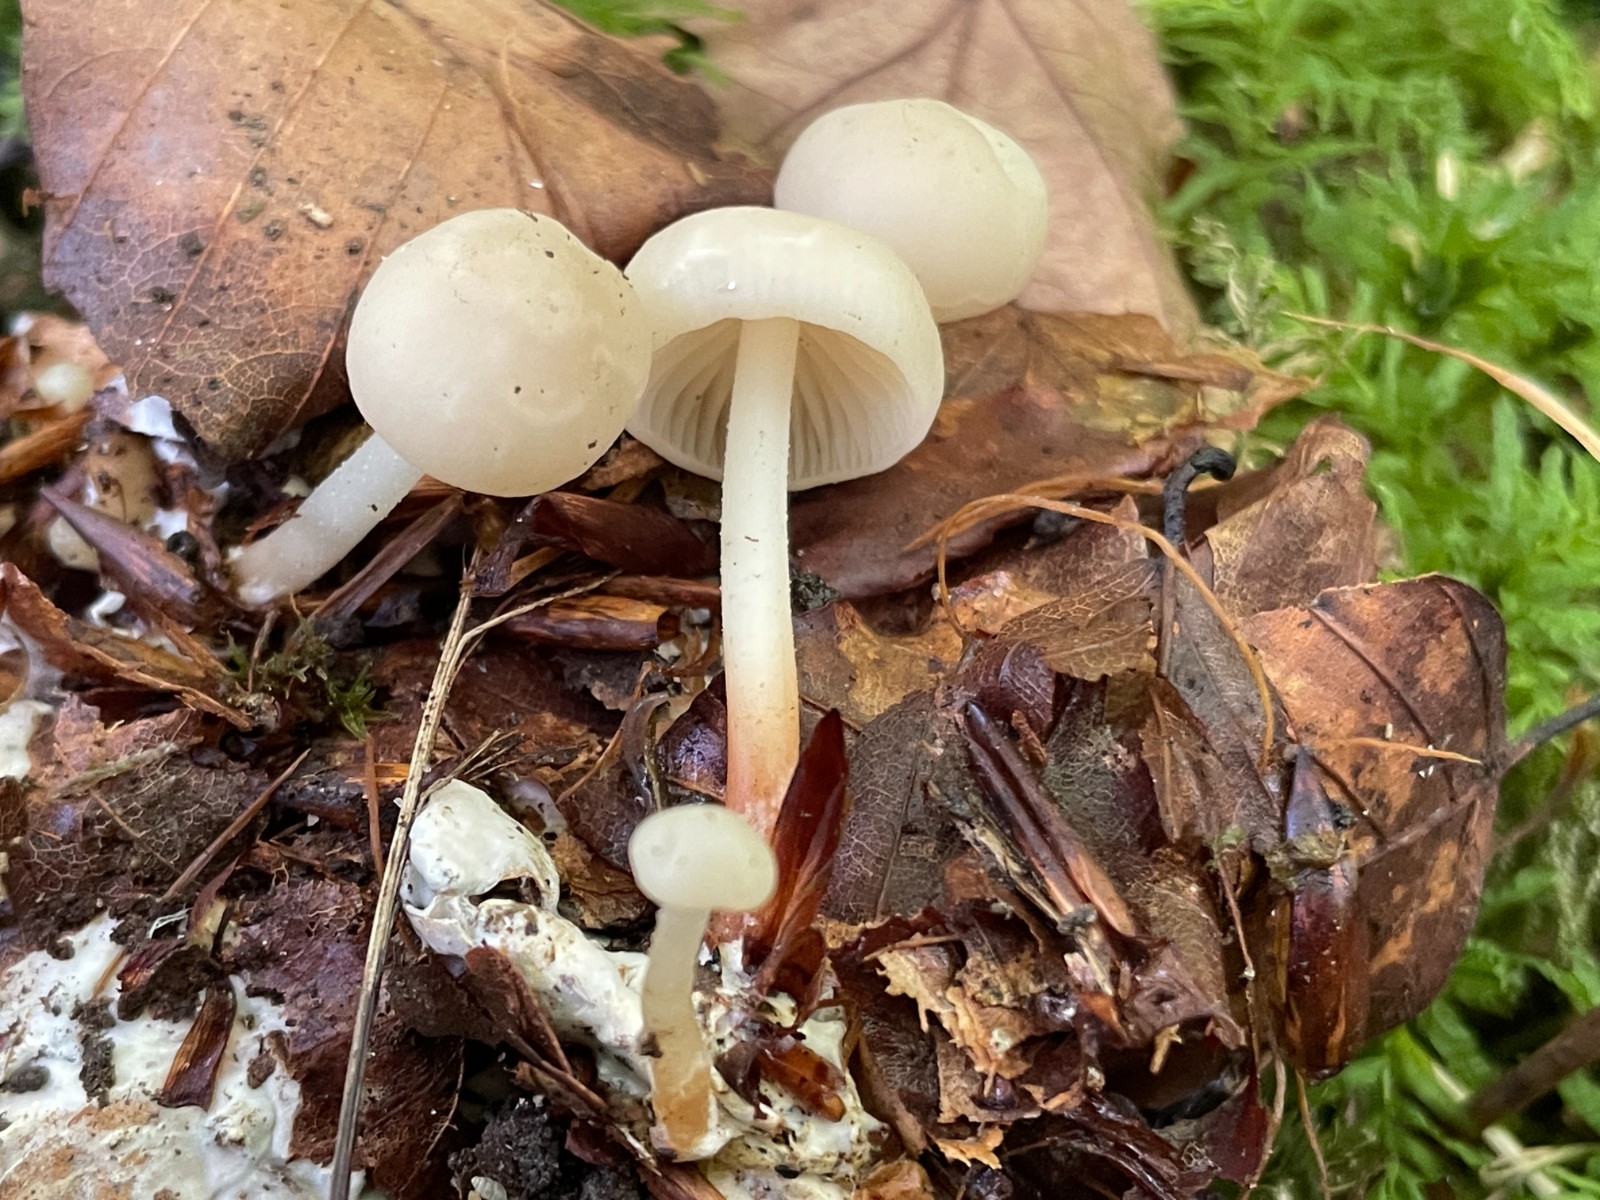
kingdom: Fungi
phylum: Basidiomycota
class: Agaricomycetes
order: Agaricales
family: Marasmiaceae
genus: Marasmius
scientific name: Marasmius wynneae
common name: hvælvet bruskhat
